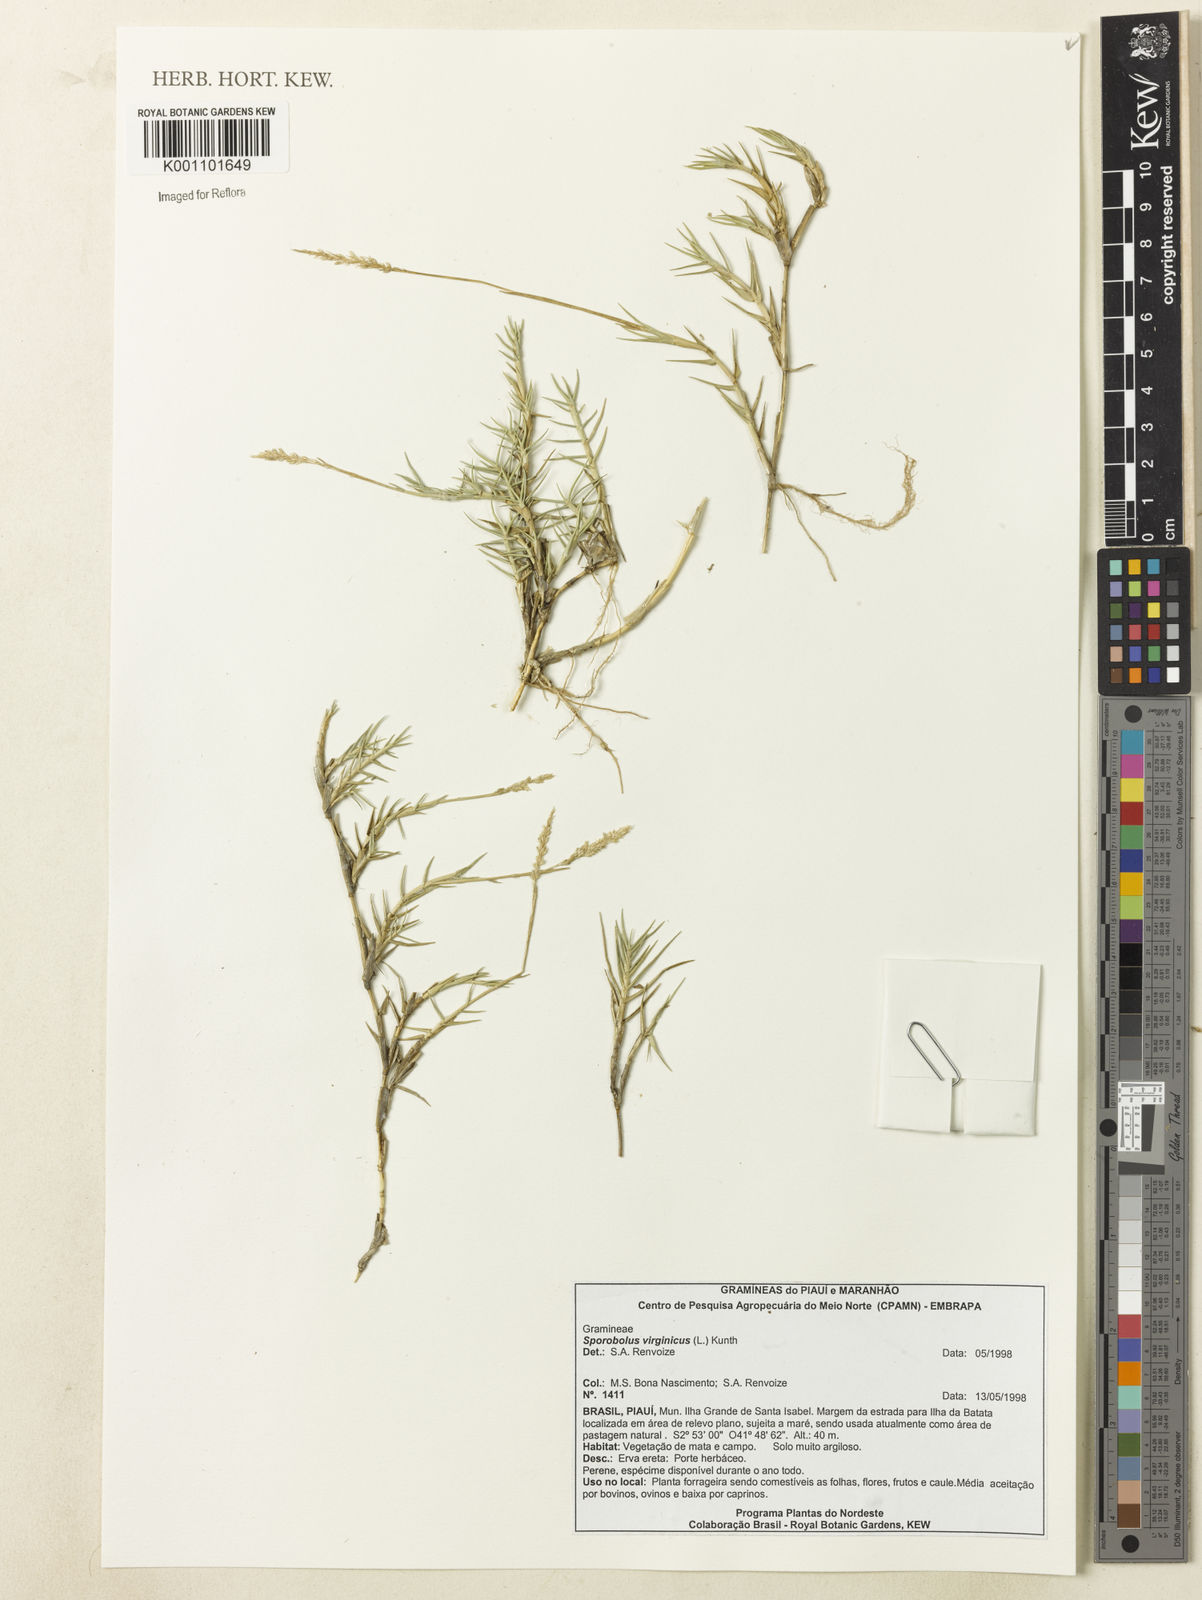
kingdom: Plantae
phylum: Tracheophyta
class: Liliopsida
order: Poales
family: Poaceae
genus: Sporobolus
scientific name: Sporobolus virginicus
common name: Beach dropseed
